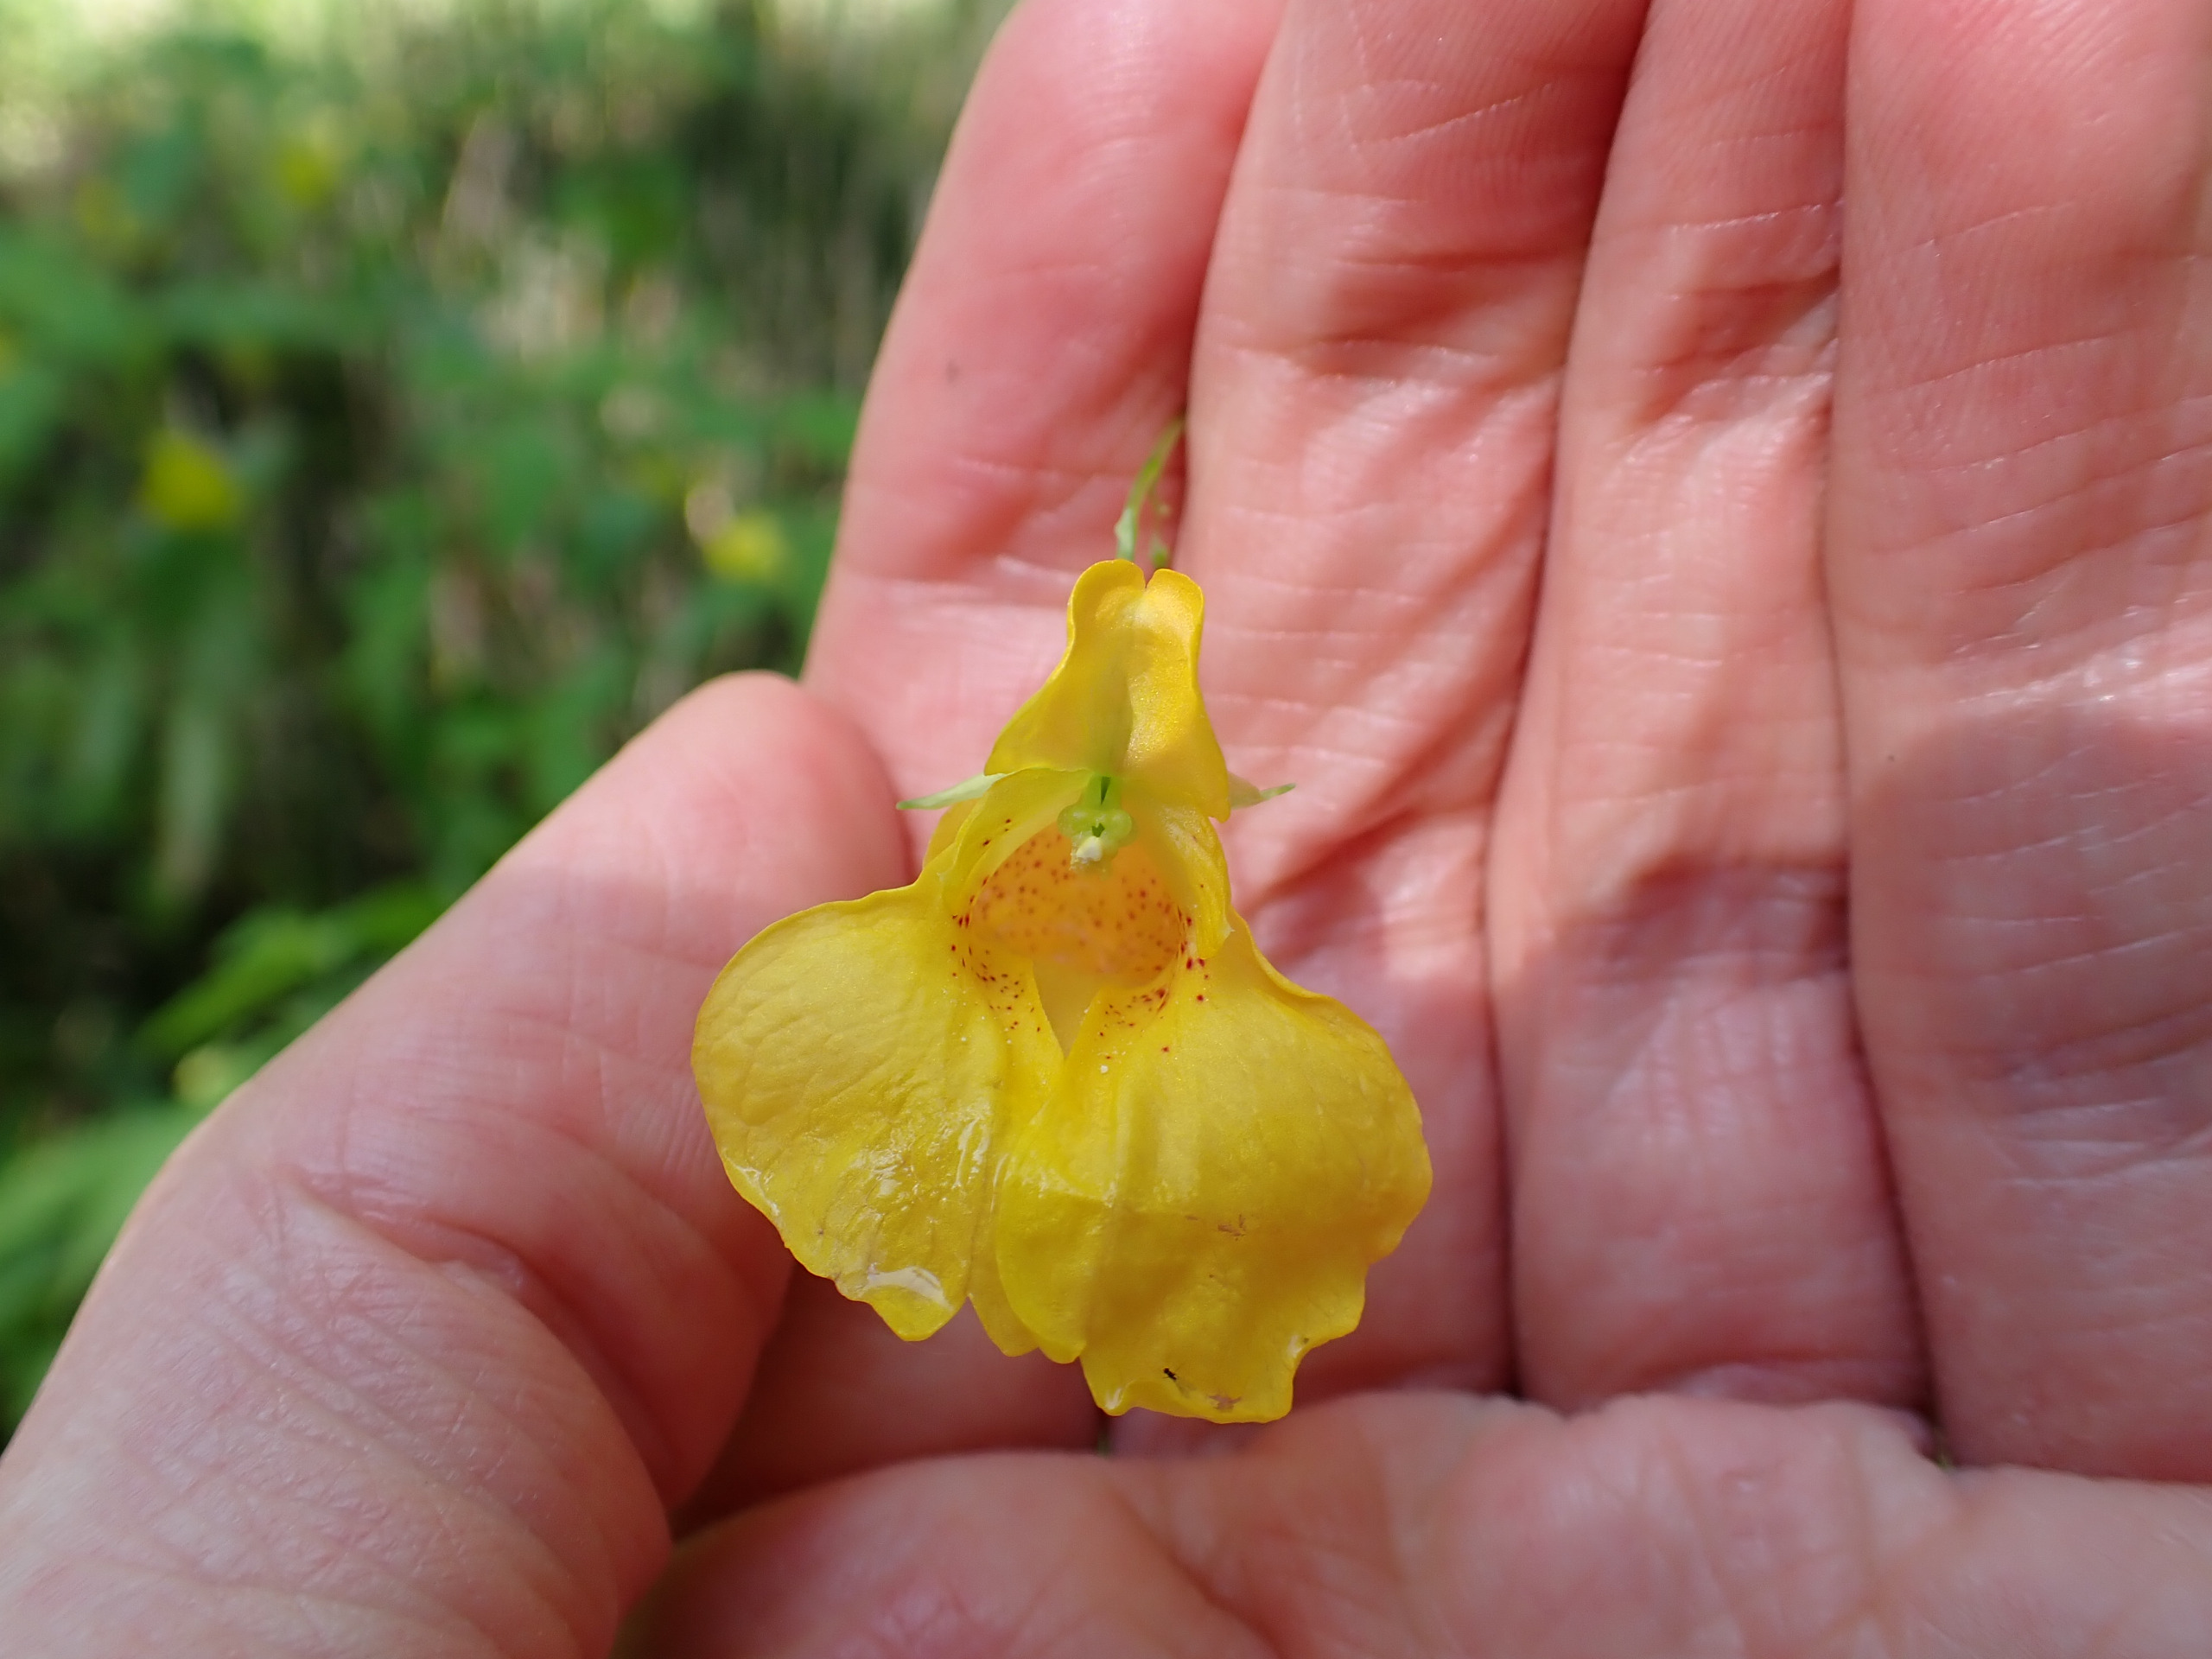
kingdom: Plantae
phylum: Tracheophyta
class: Magnoliopsida
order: Ericales
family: Balsaminaceae
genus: Impatiens
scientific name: Impatiens noli-tangere
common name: Spring-balsamin
